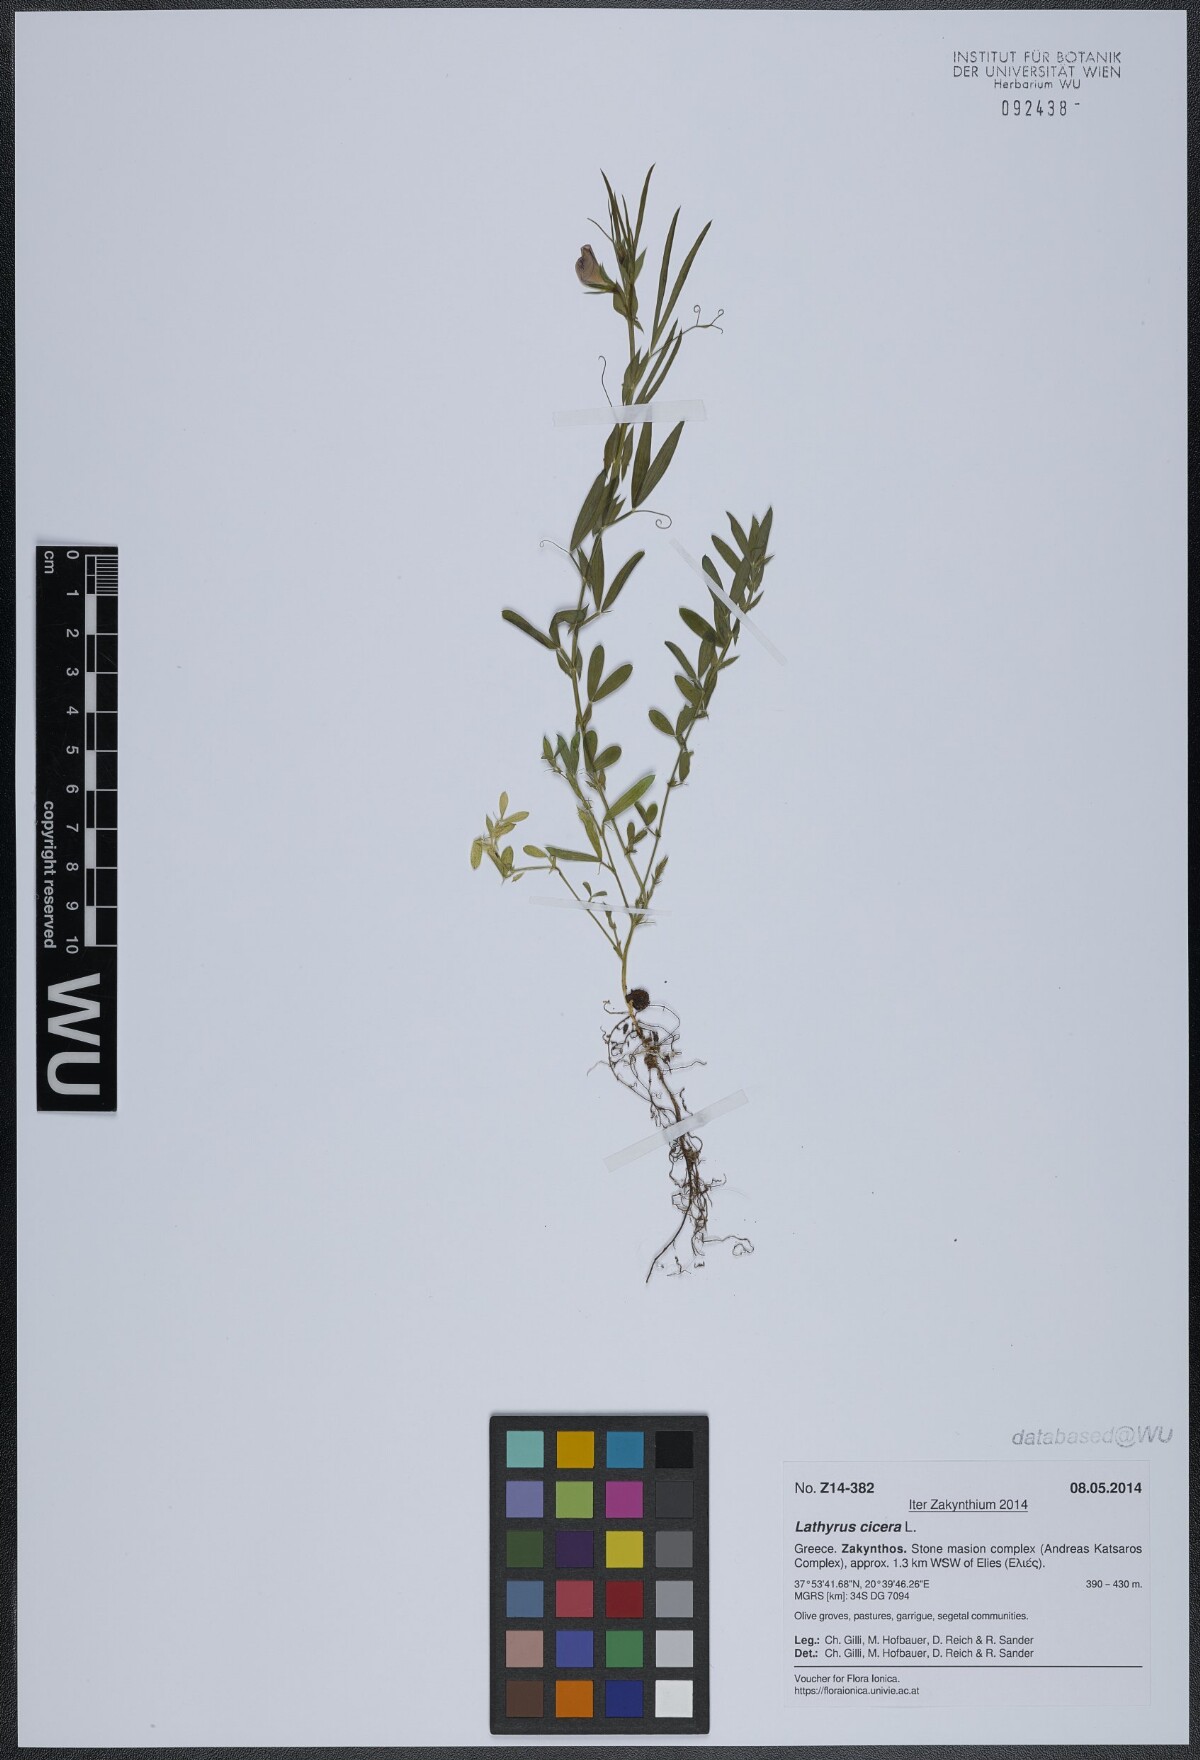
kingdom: Plantae
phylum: Tracheophyta
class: Magnoliopsida
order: Fabales
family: Fabaceae
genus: Lathyrus
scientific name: Lathyrus cicera
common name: Red vetchling
